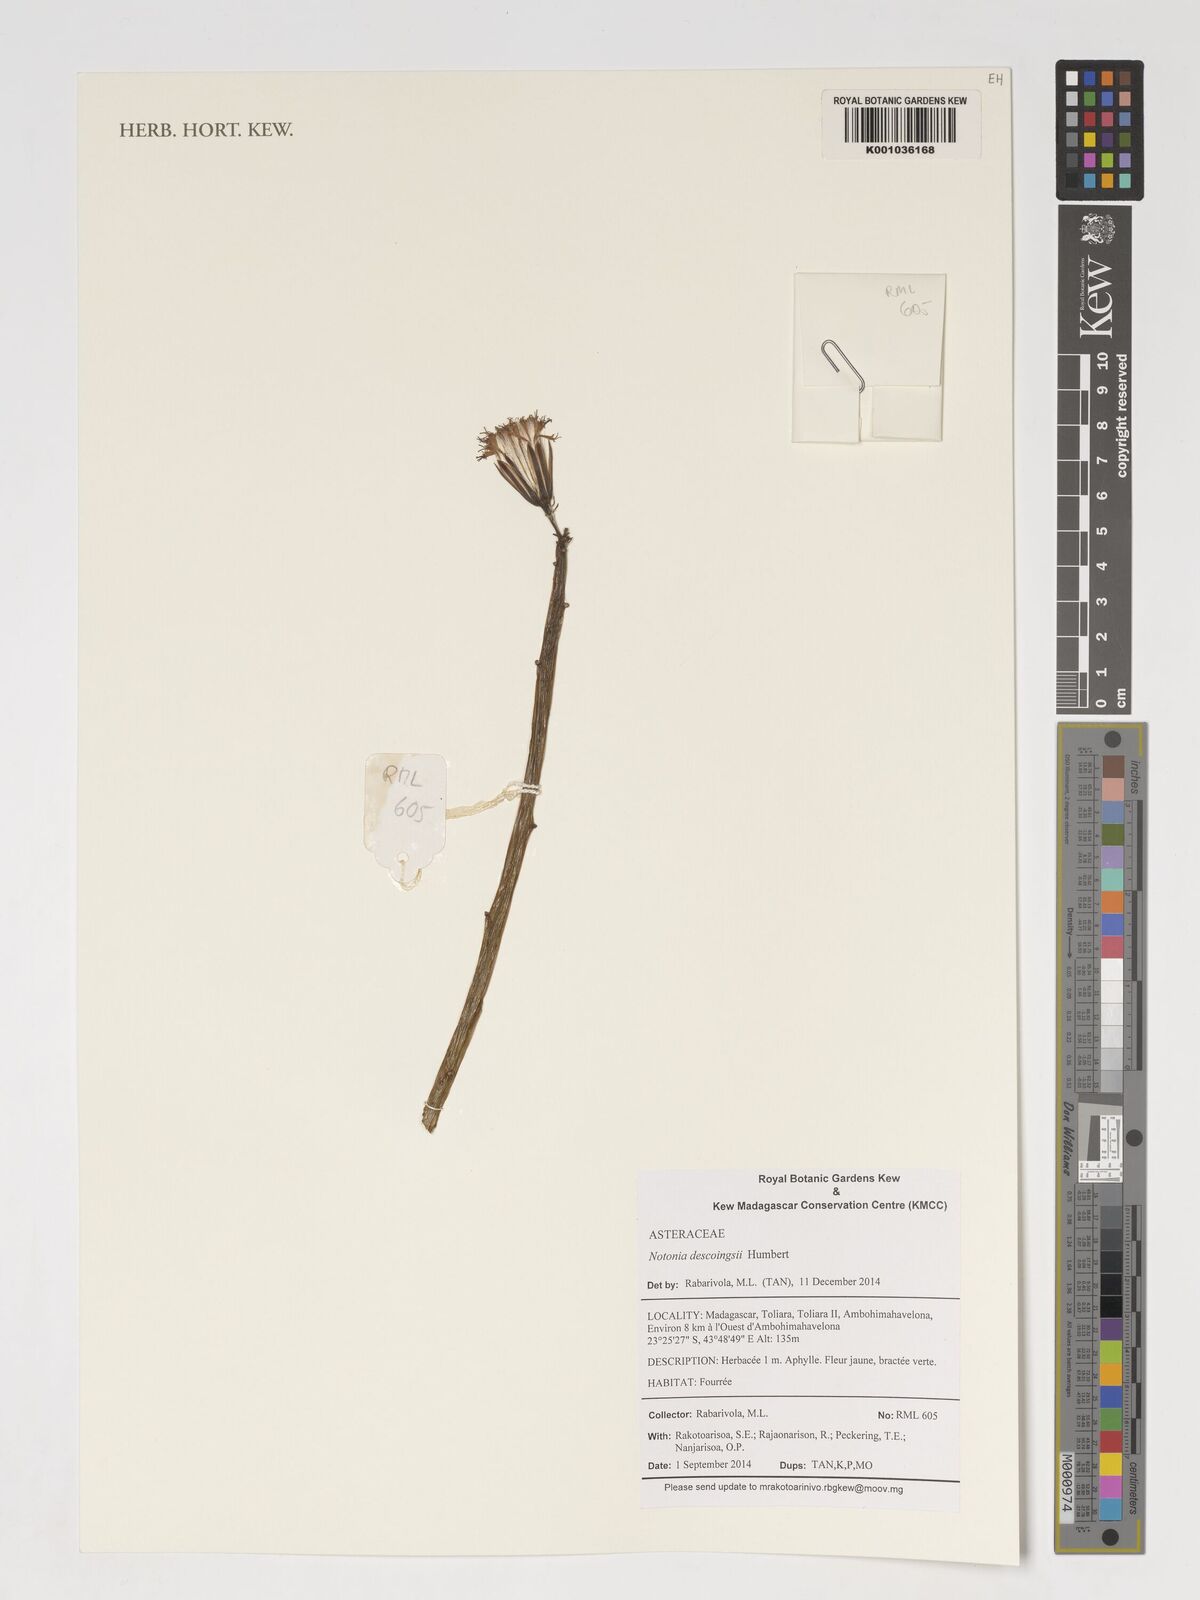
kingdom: Plantae
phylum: Tracheophyta
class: Magnoliopsida
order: Asterales
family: Asteraceae
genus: Kleinia
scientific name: Kleinia descoingsii
